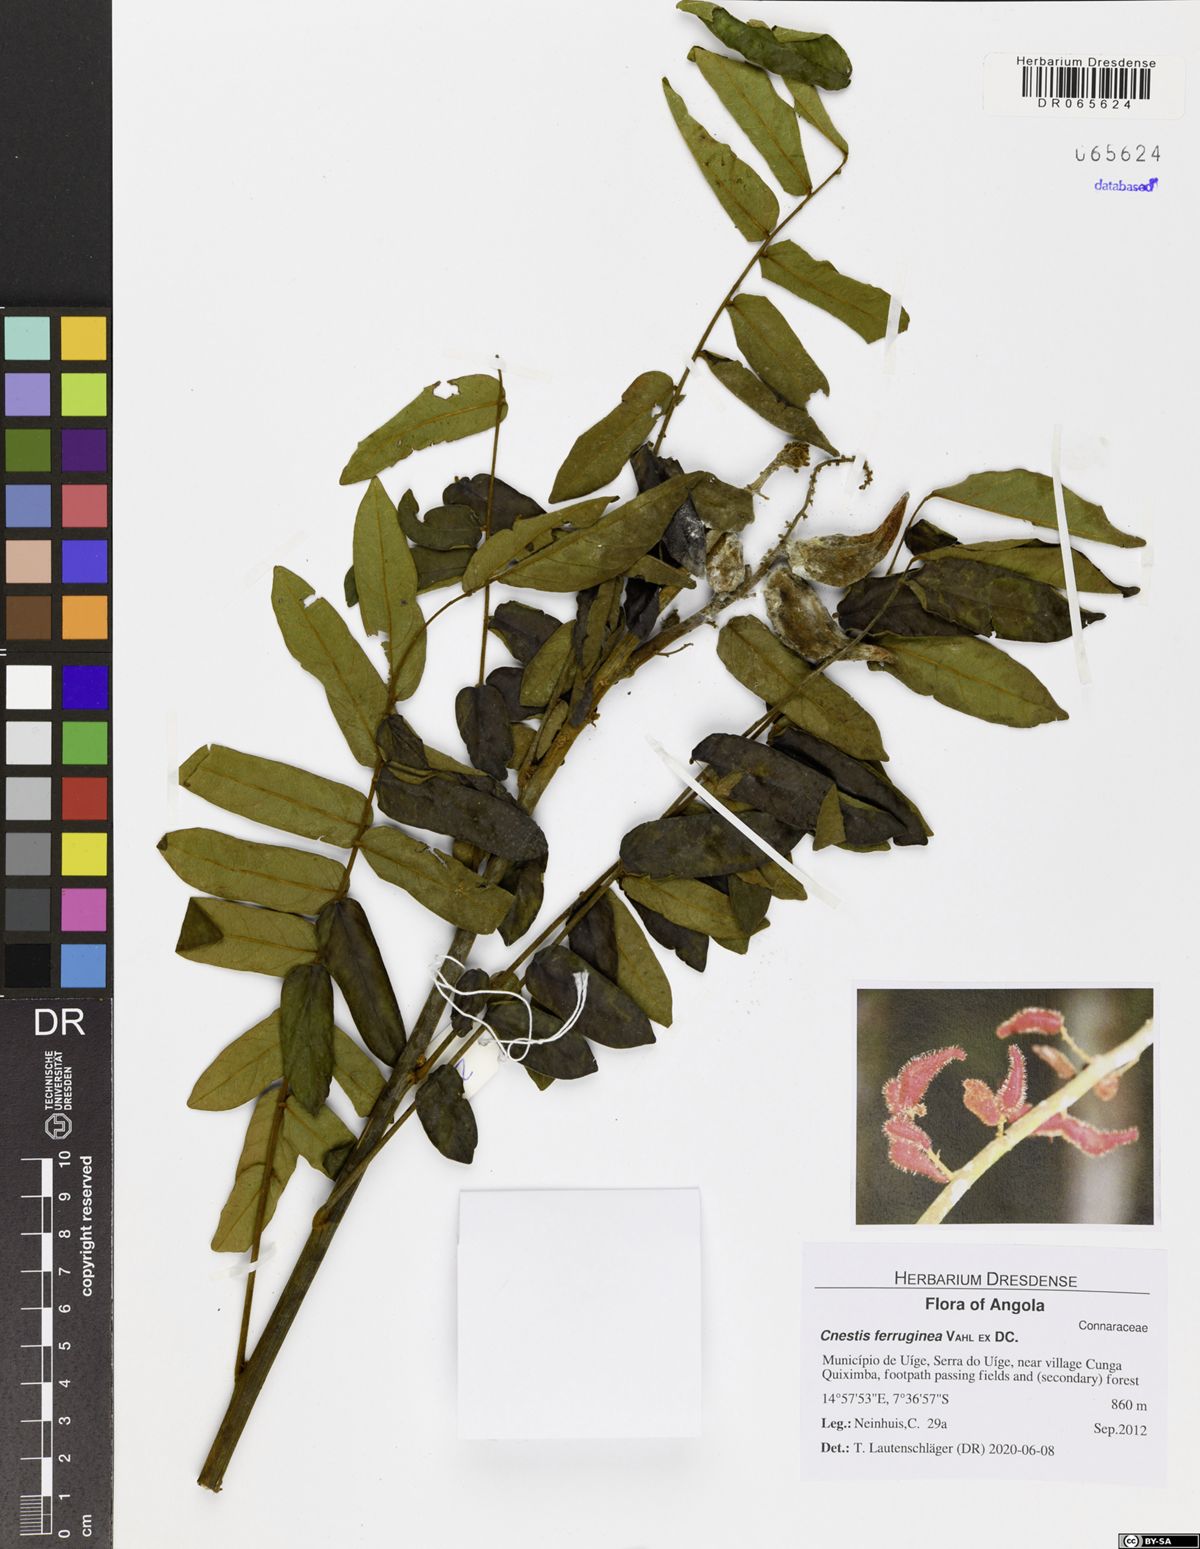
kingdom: Plantae
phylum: Tracheophyta
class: Magnoliopsida
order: Oxalidales
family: Connaraceae
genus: Cnestis
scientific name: Cnestis ferruginea
